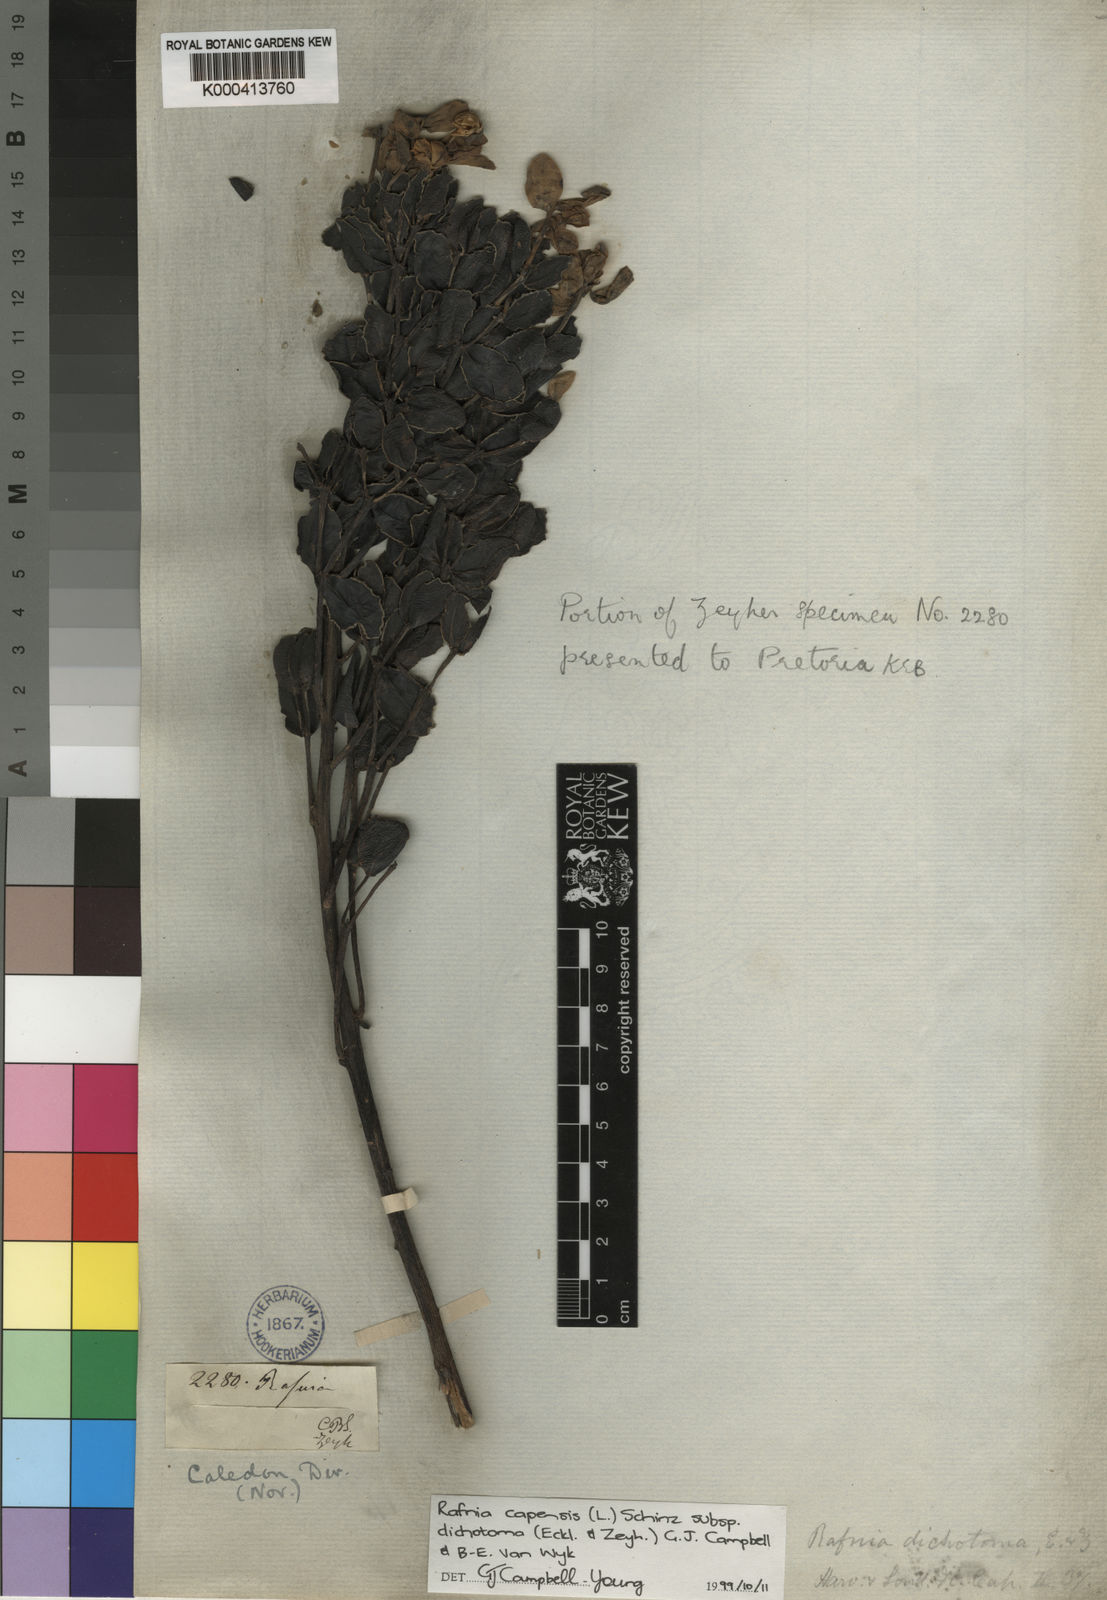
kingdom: Plantae
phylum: Tracheophyta
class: Magnoliopsida
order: Fabales
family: Fabaceae
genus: Rafnia
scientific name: Rafnia capensis
